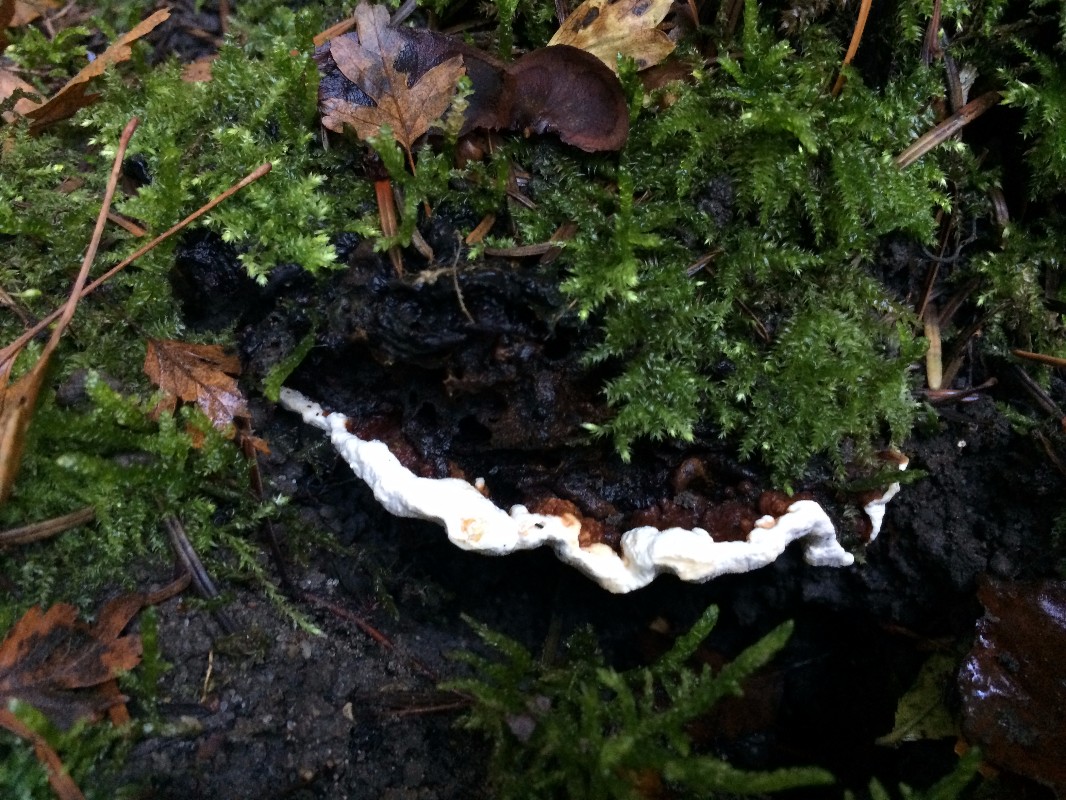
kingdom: Fungi
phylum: Basidiomycota
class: Agaricomycetes
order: Russulales
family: Bondarzewiaceae
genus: Heterobasidion
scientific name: Heterobasidion annosum
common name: almindelig rodfordærver
